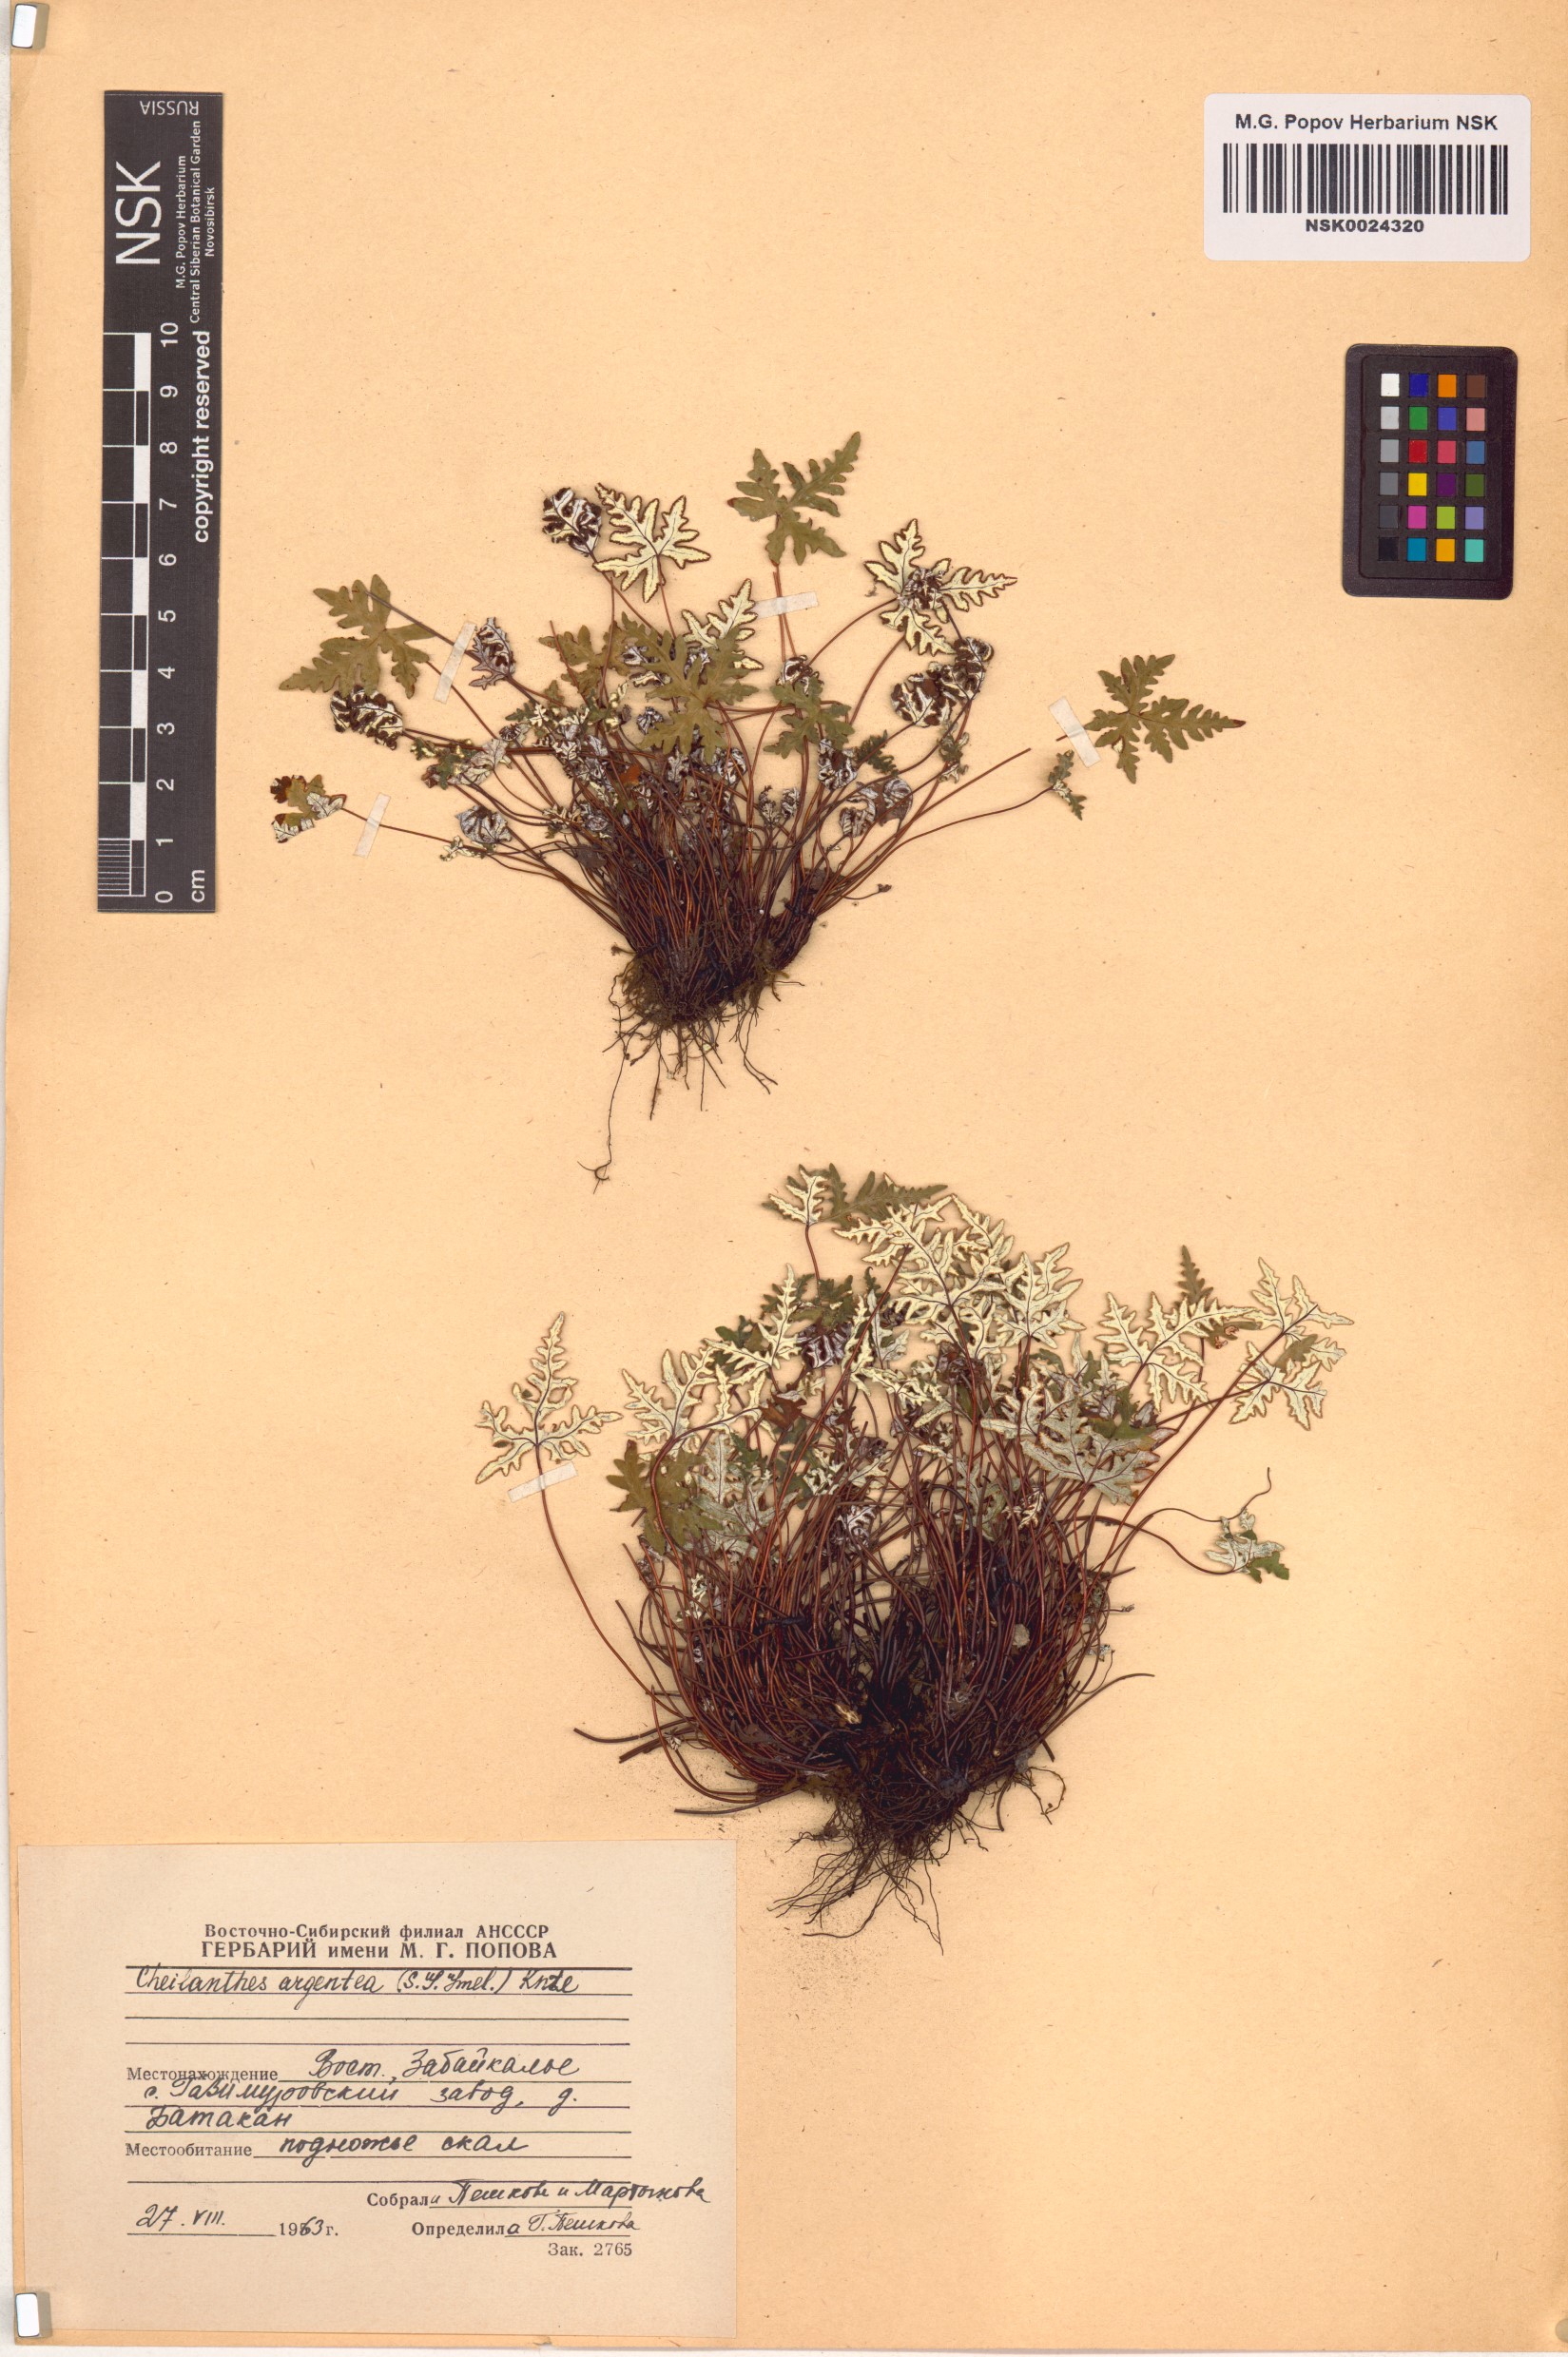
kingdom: Plantae
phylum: Tracheophyta
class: Polypodiopsida
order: Polypodiales
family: Pteridaceae
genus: Aleuritopteris
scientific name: Aleuritopteris argentea
